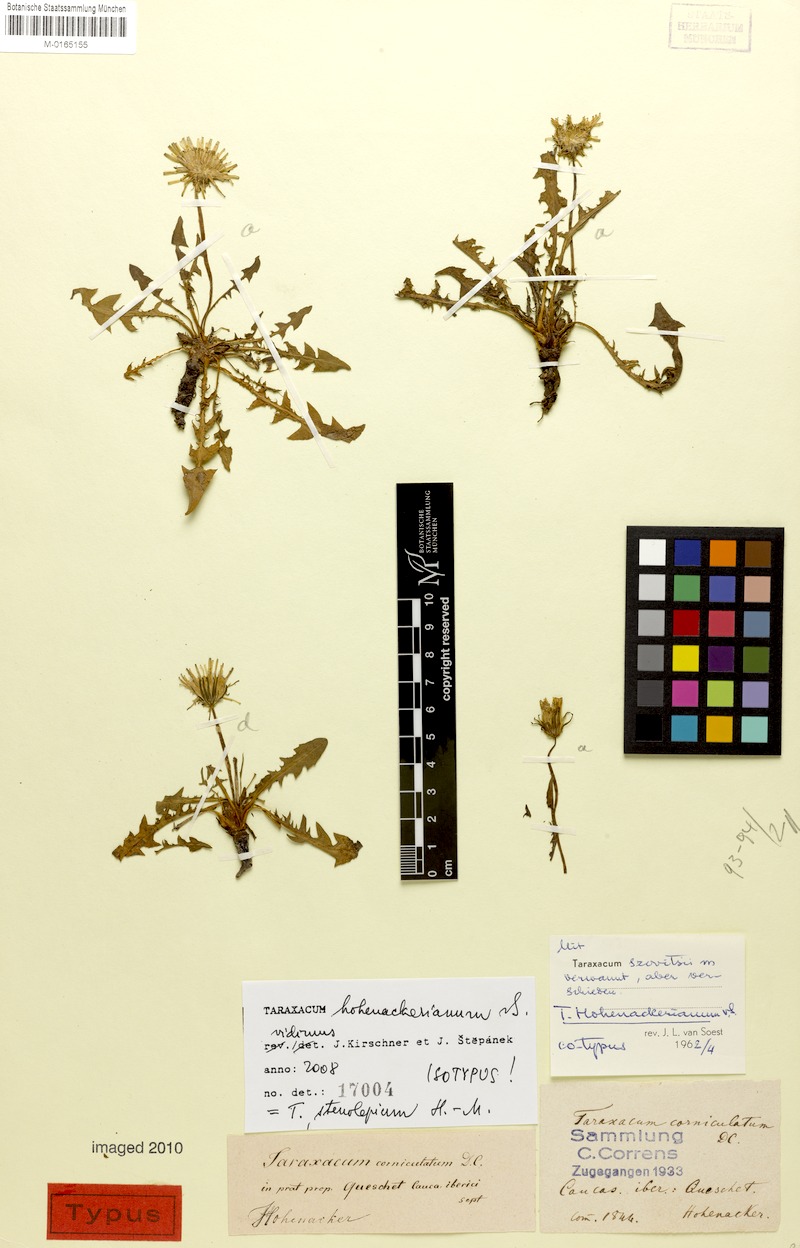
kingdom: Plantae
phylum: Tracheophyta
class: Magnoliopsida
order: Asterales
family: Asteraceae
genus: Taraxacum
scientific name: Taraxacum stenocephalum
